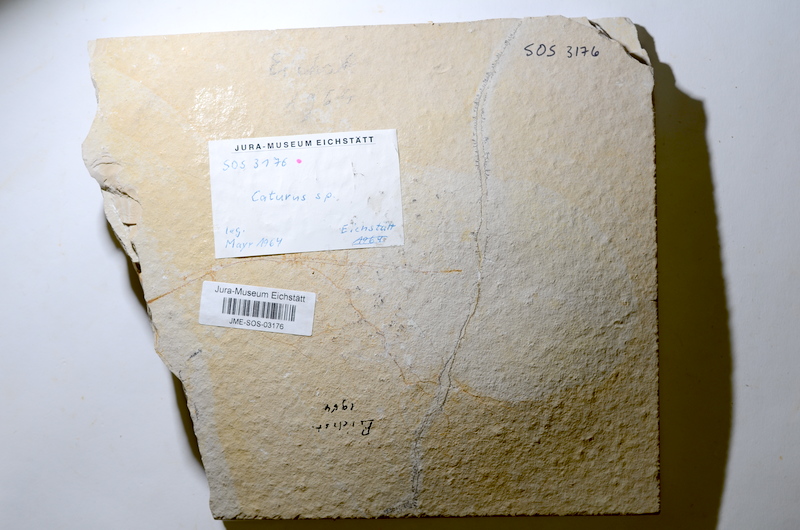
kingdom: Animalia
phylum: Chordata
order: Amiiformes
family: Caturidae
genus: Caturus
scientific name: Caturus furcatus
